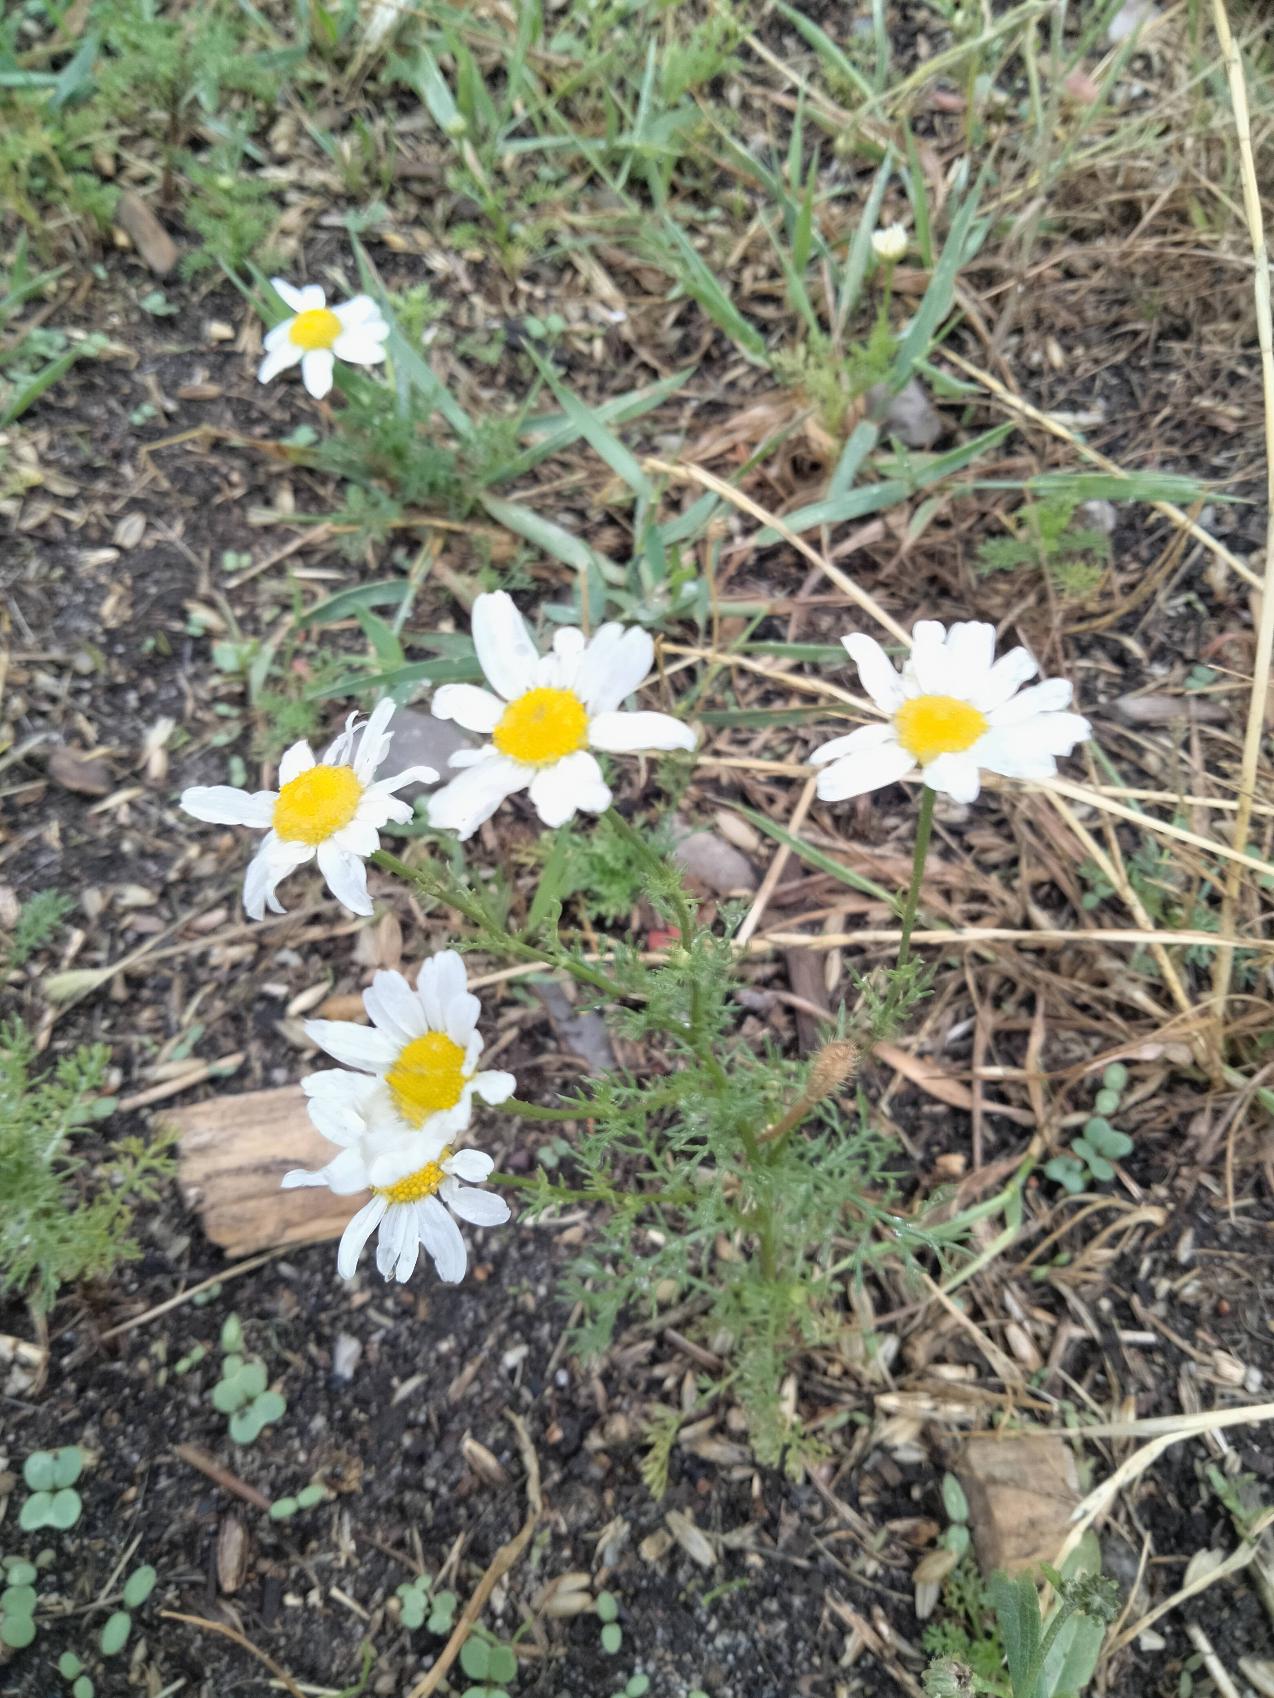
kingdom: Plantae
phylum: Tracheophyta
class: Magnoliopsida
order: Asterales
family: Asteraceae
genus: Tripleurospermum
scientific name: Tripleurospermum inodorum
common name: Lugtløs kamille
